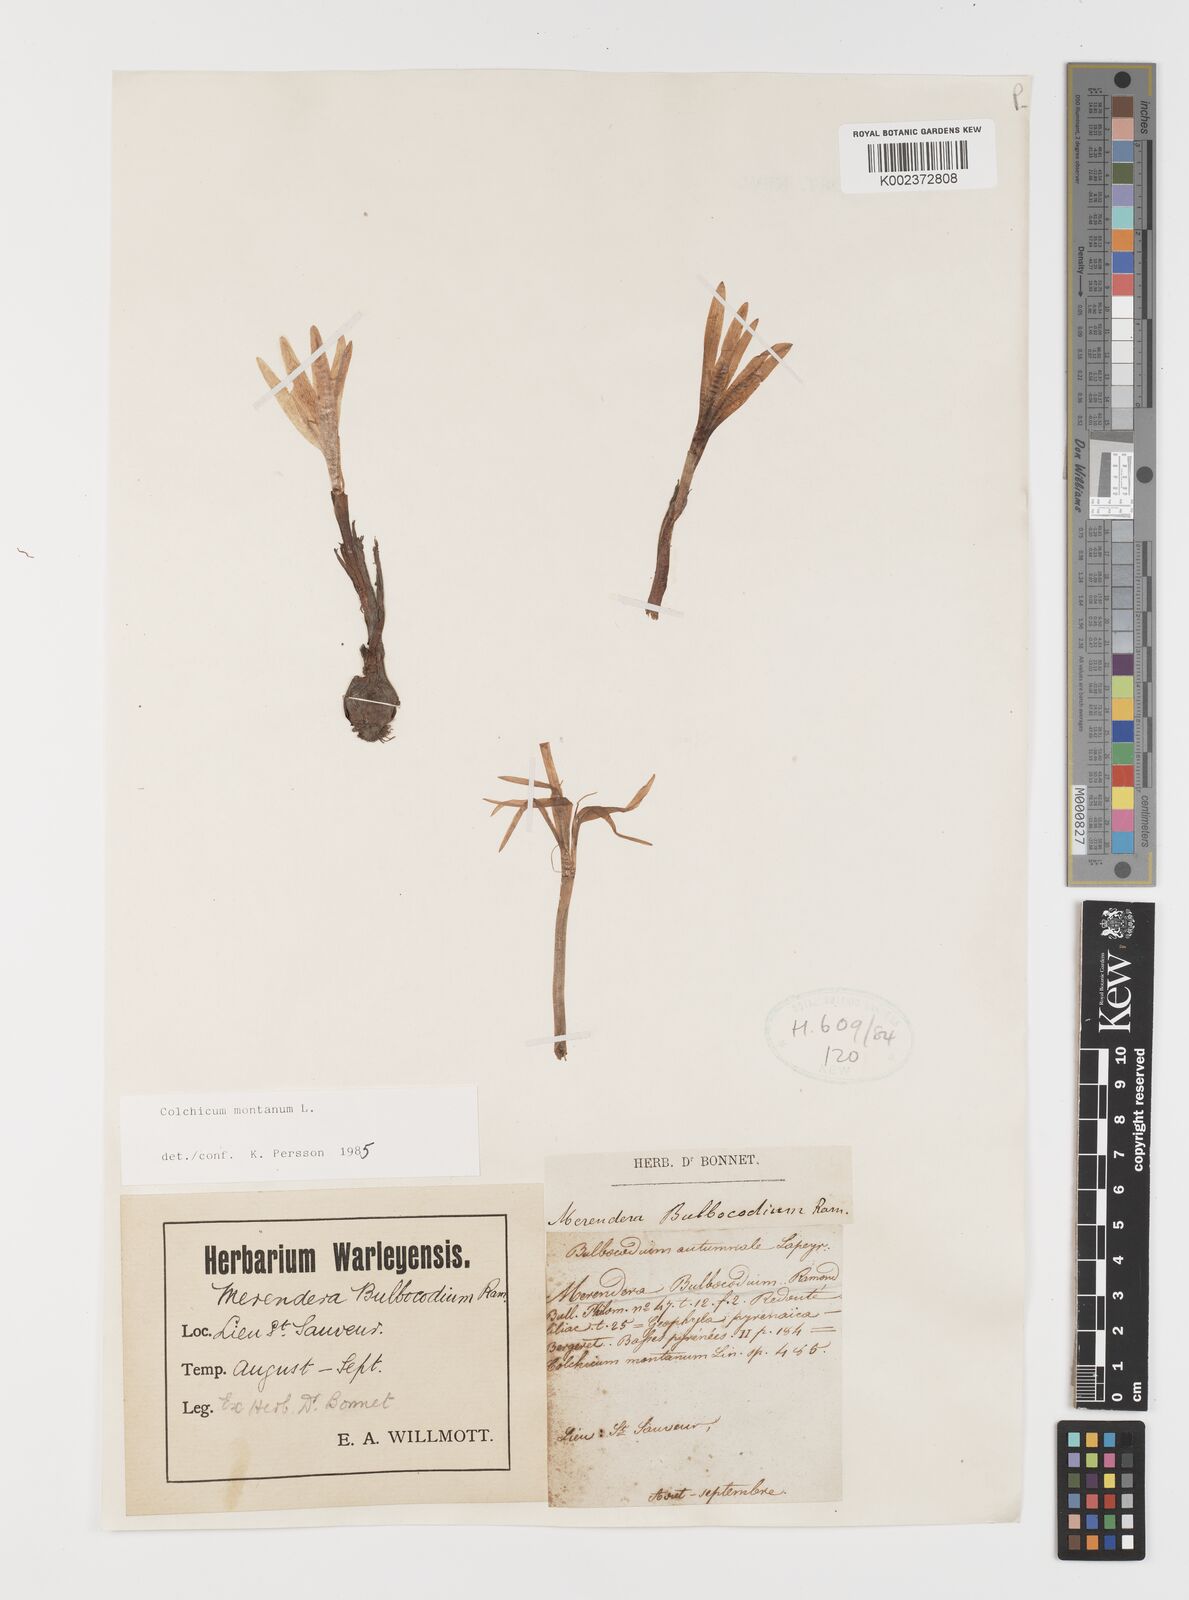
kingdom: Plantae
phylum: Tracheophyta
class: Liliopsida
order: Liliales
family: Colchicaceae
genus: Colchicum
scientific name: Colchicum montanum
